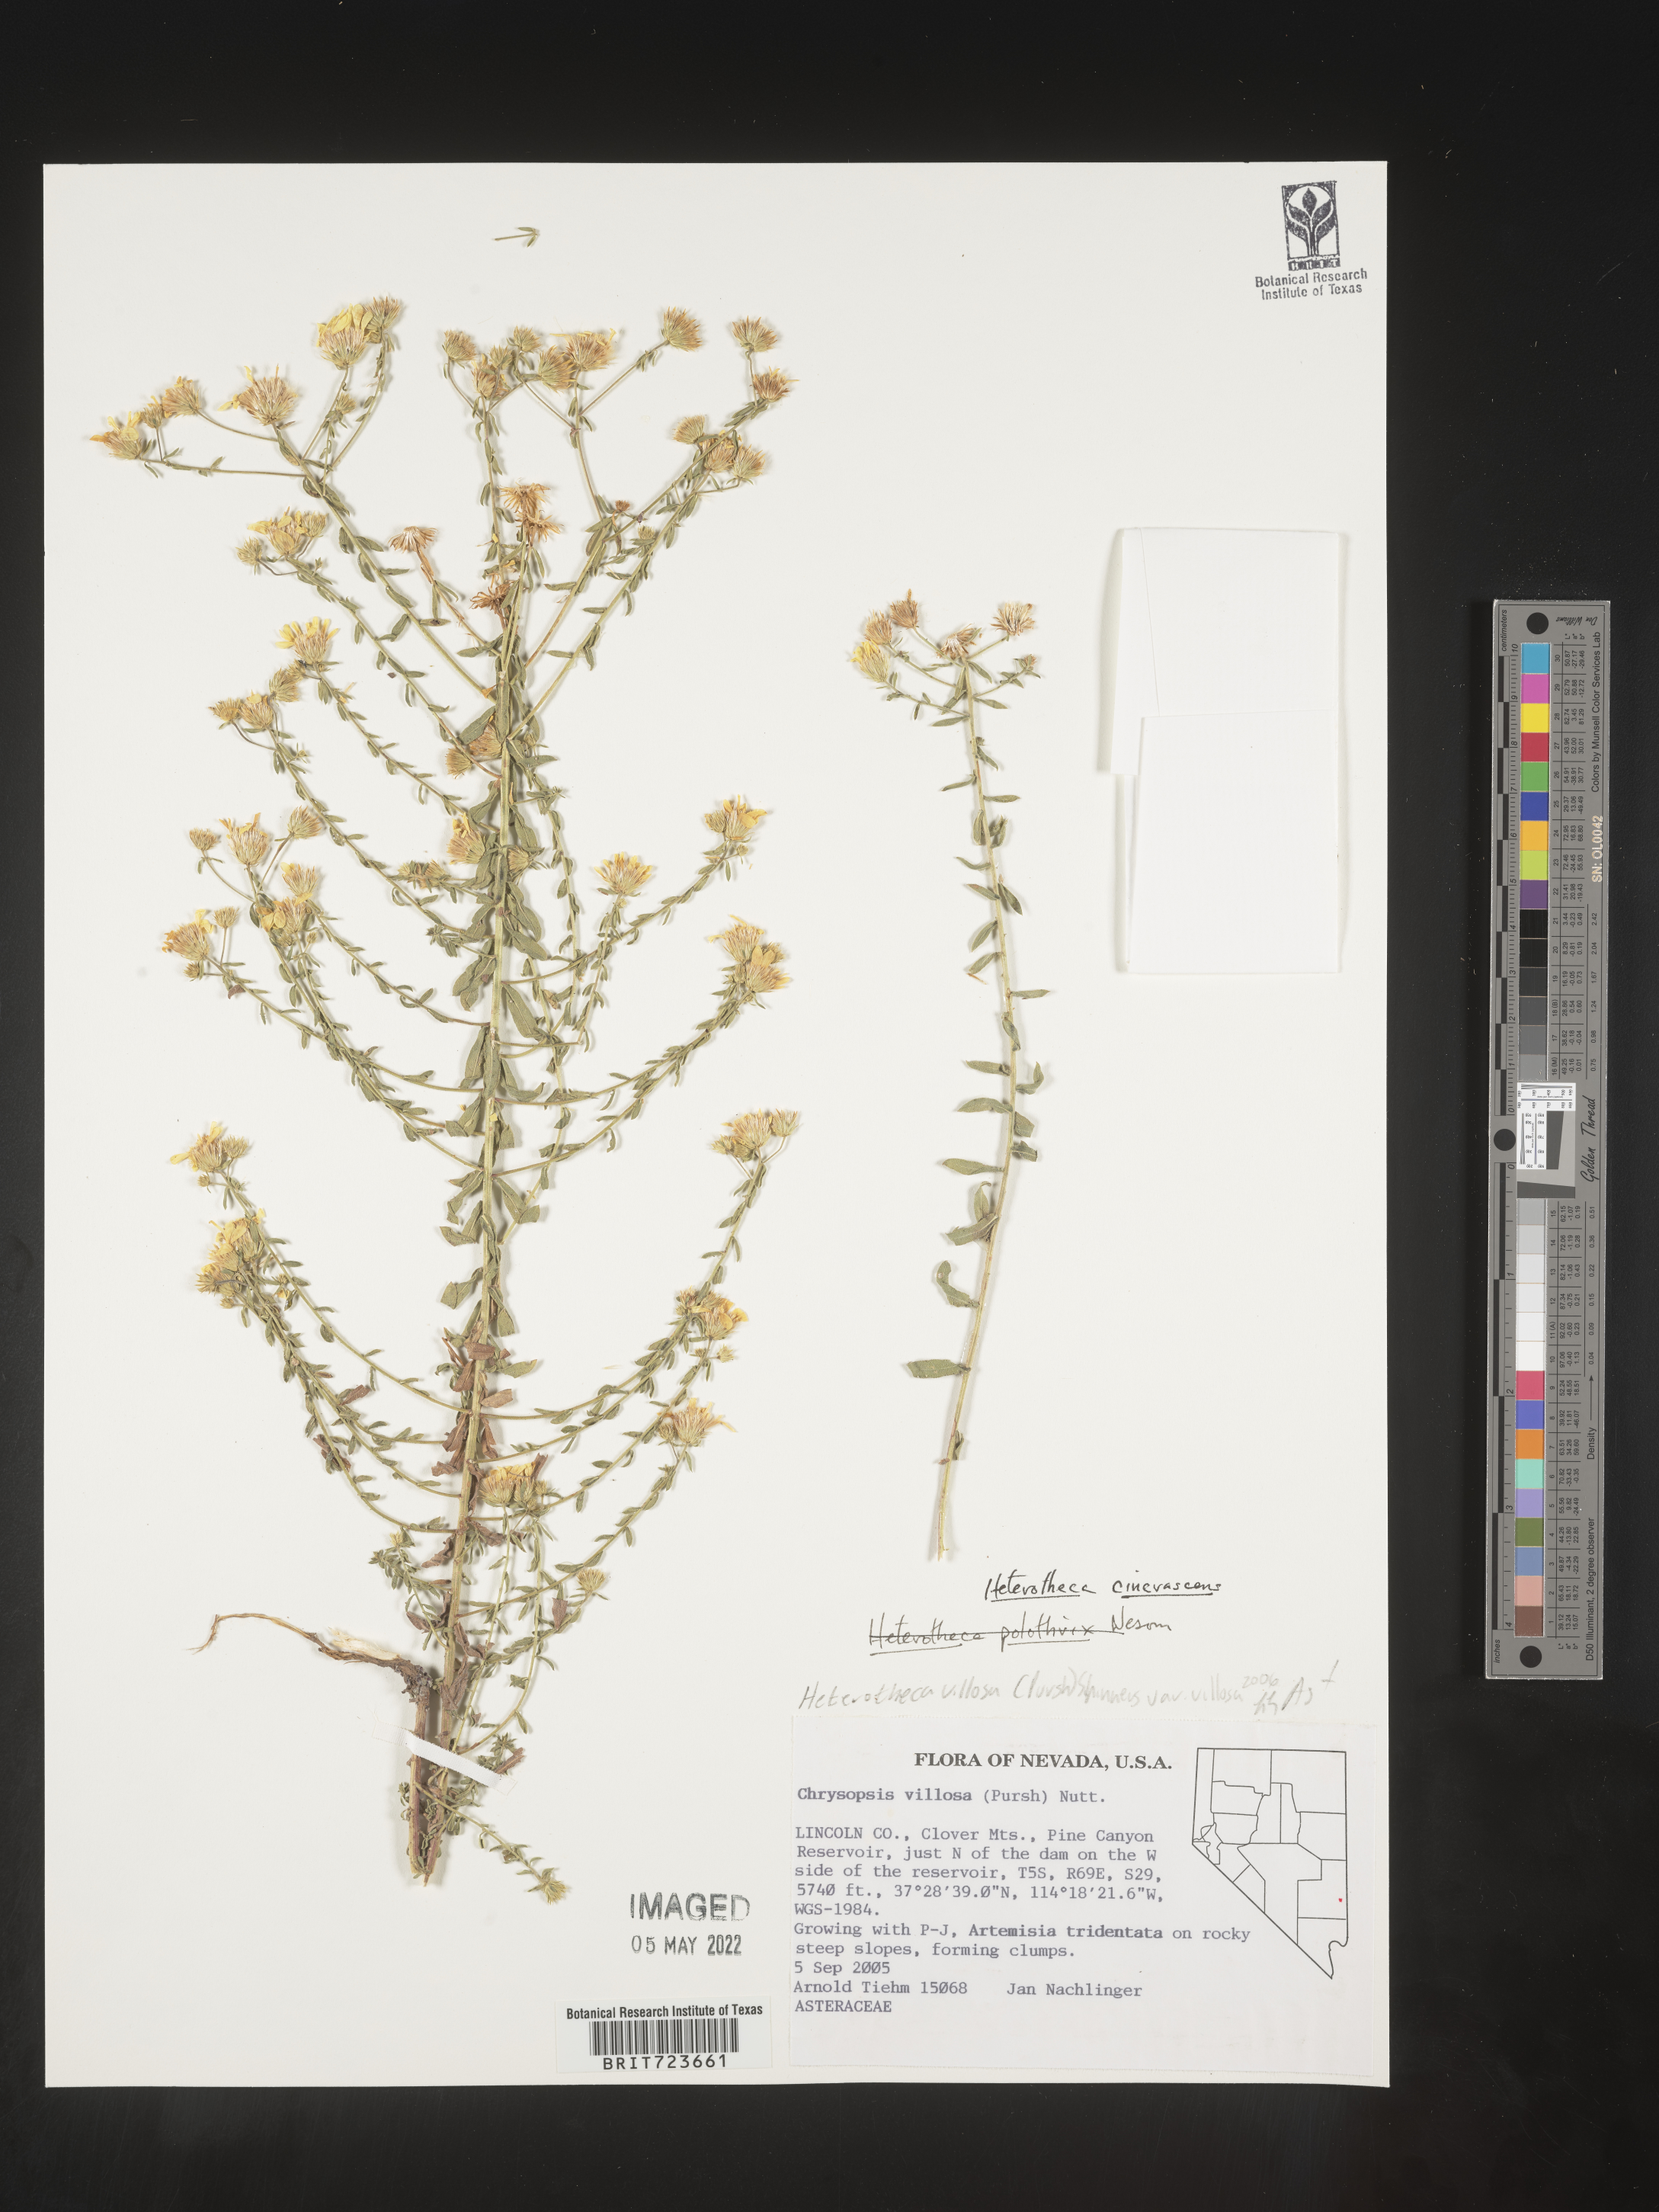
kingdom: Plantae
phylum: Tracheophyta
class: Magnoliopsida
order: Asterales
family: Asteraceae
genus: Heterotheca
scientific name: Heterotheca cinerascens
